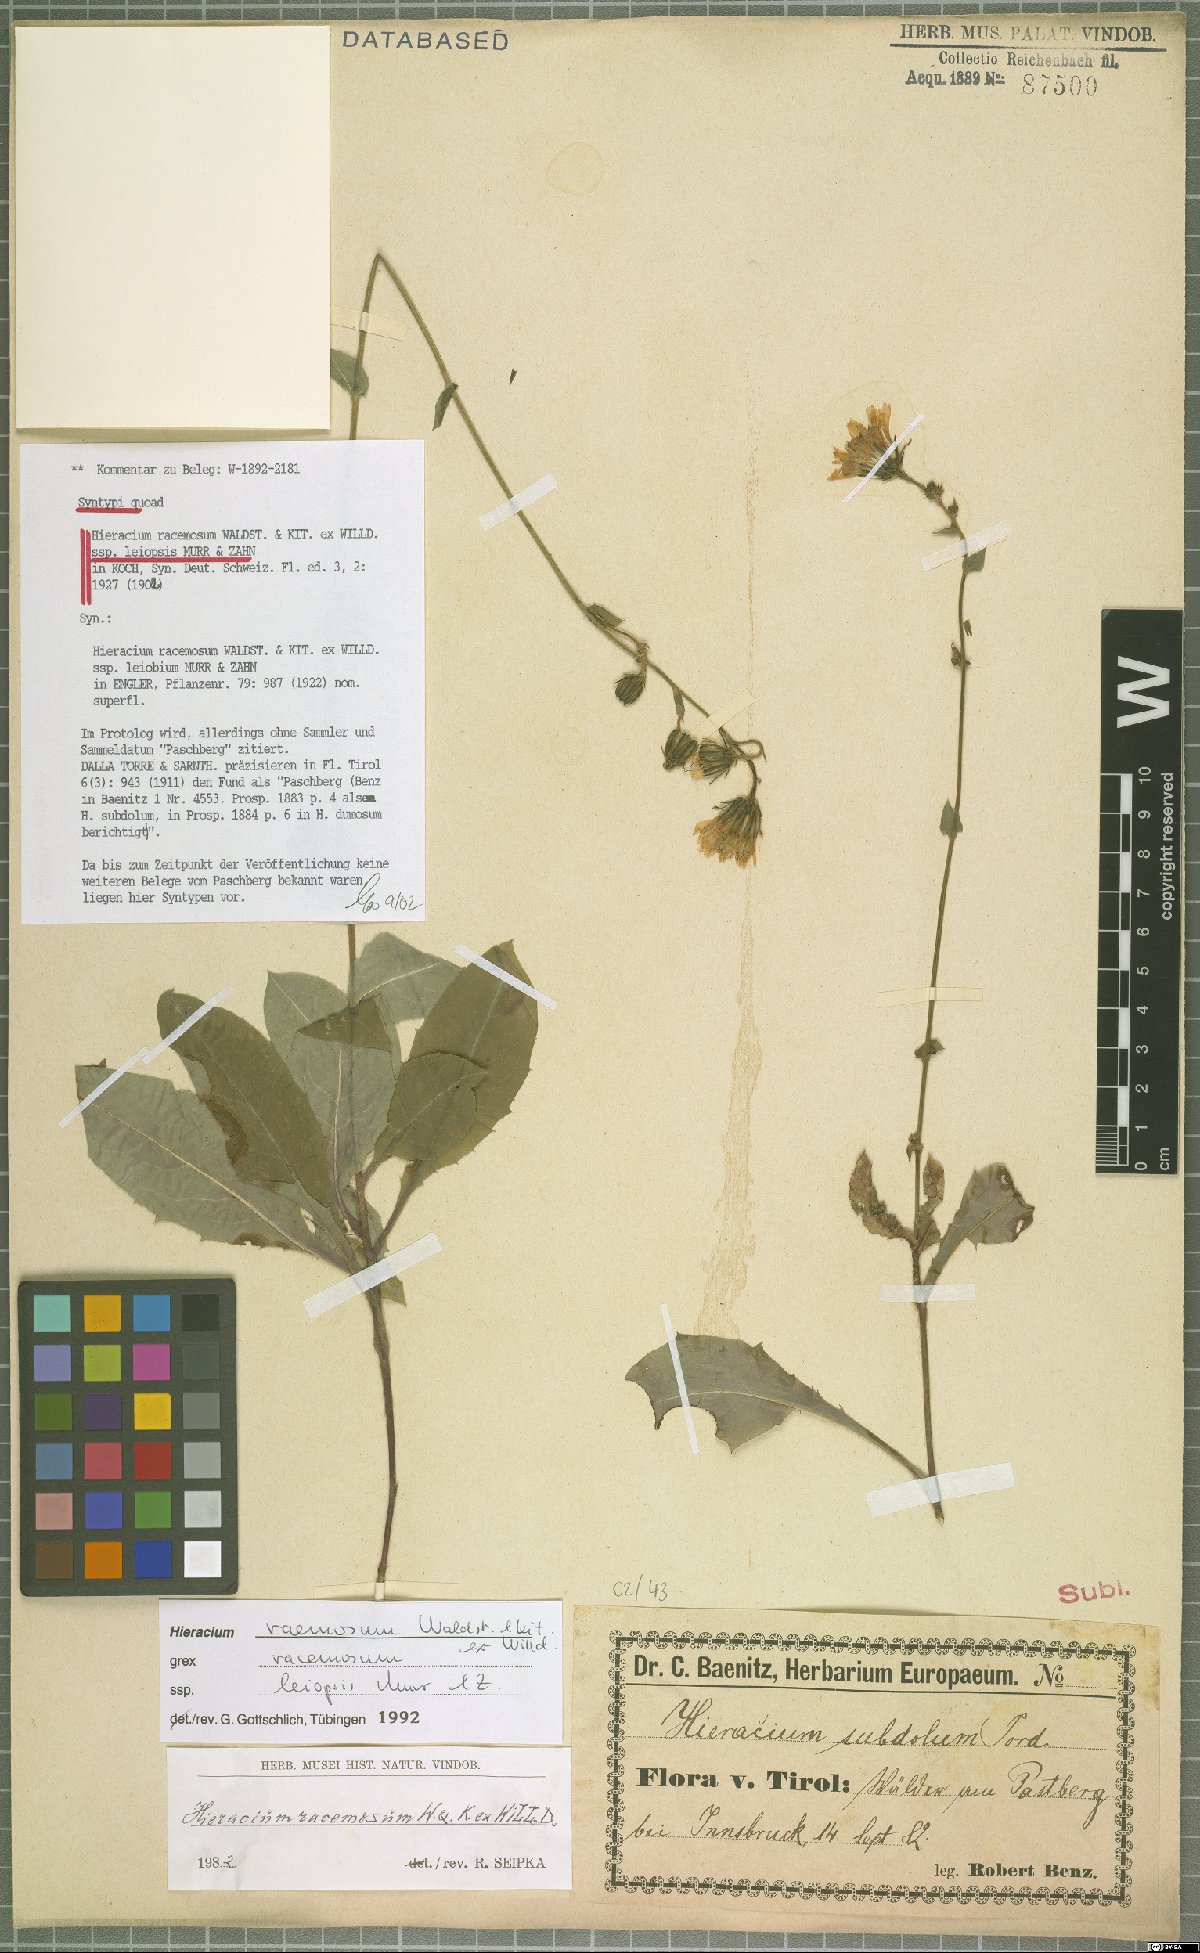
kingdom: Plantae
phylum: Tracheophyta
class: Magnoliopsida
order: Asterales
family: Asteraceae
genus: Hieracium
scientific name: Hieracium racemosum
